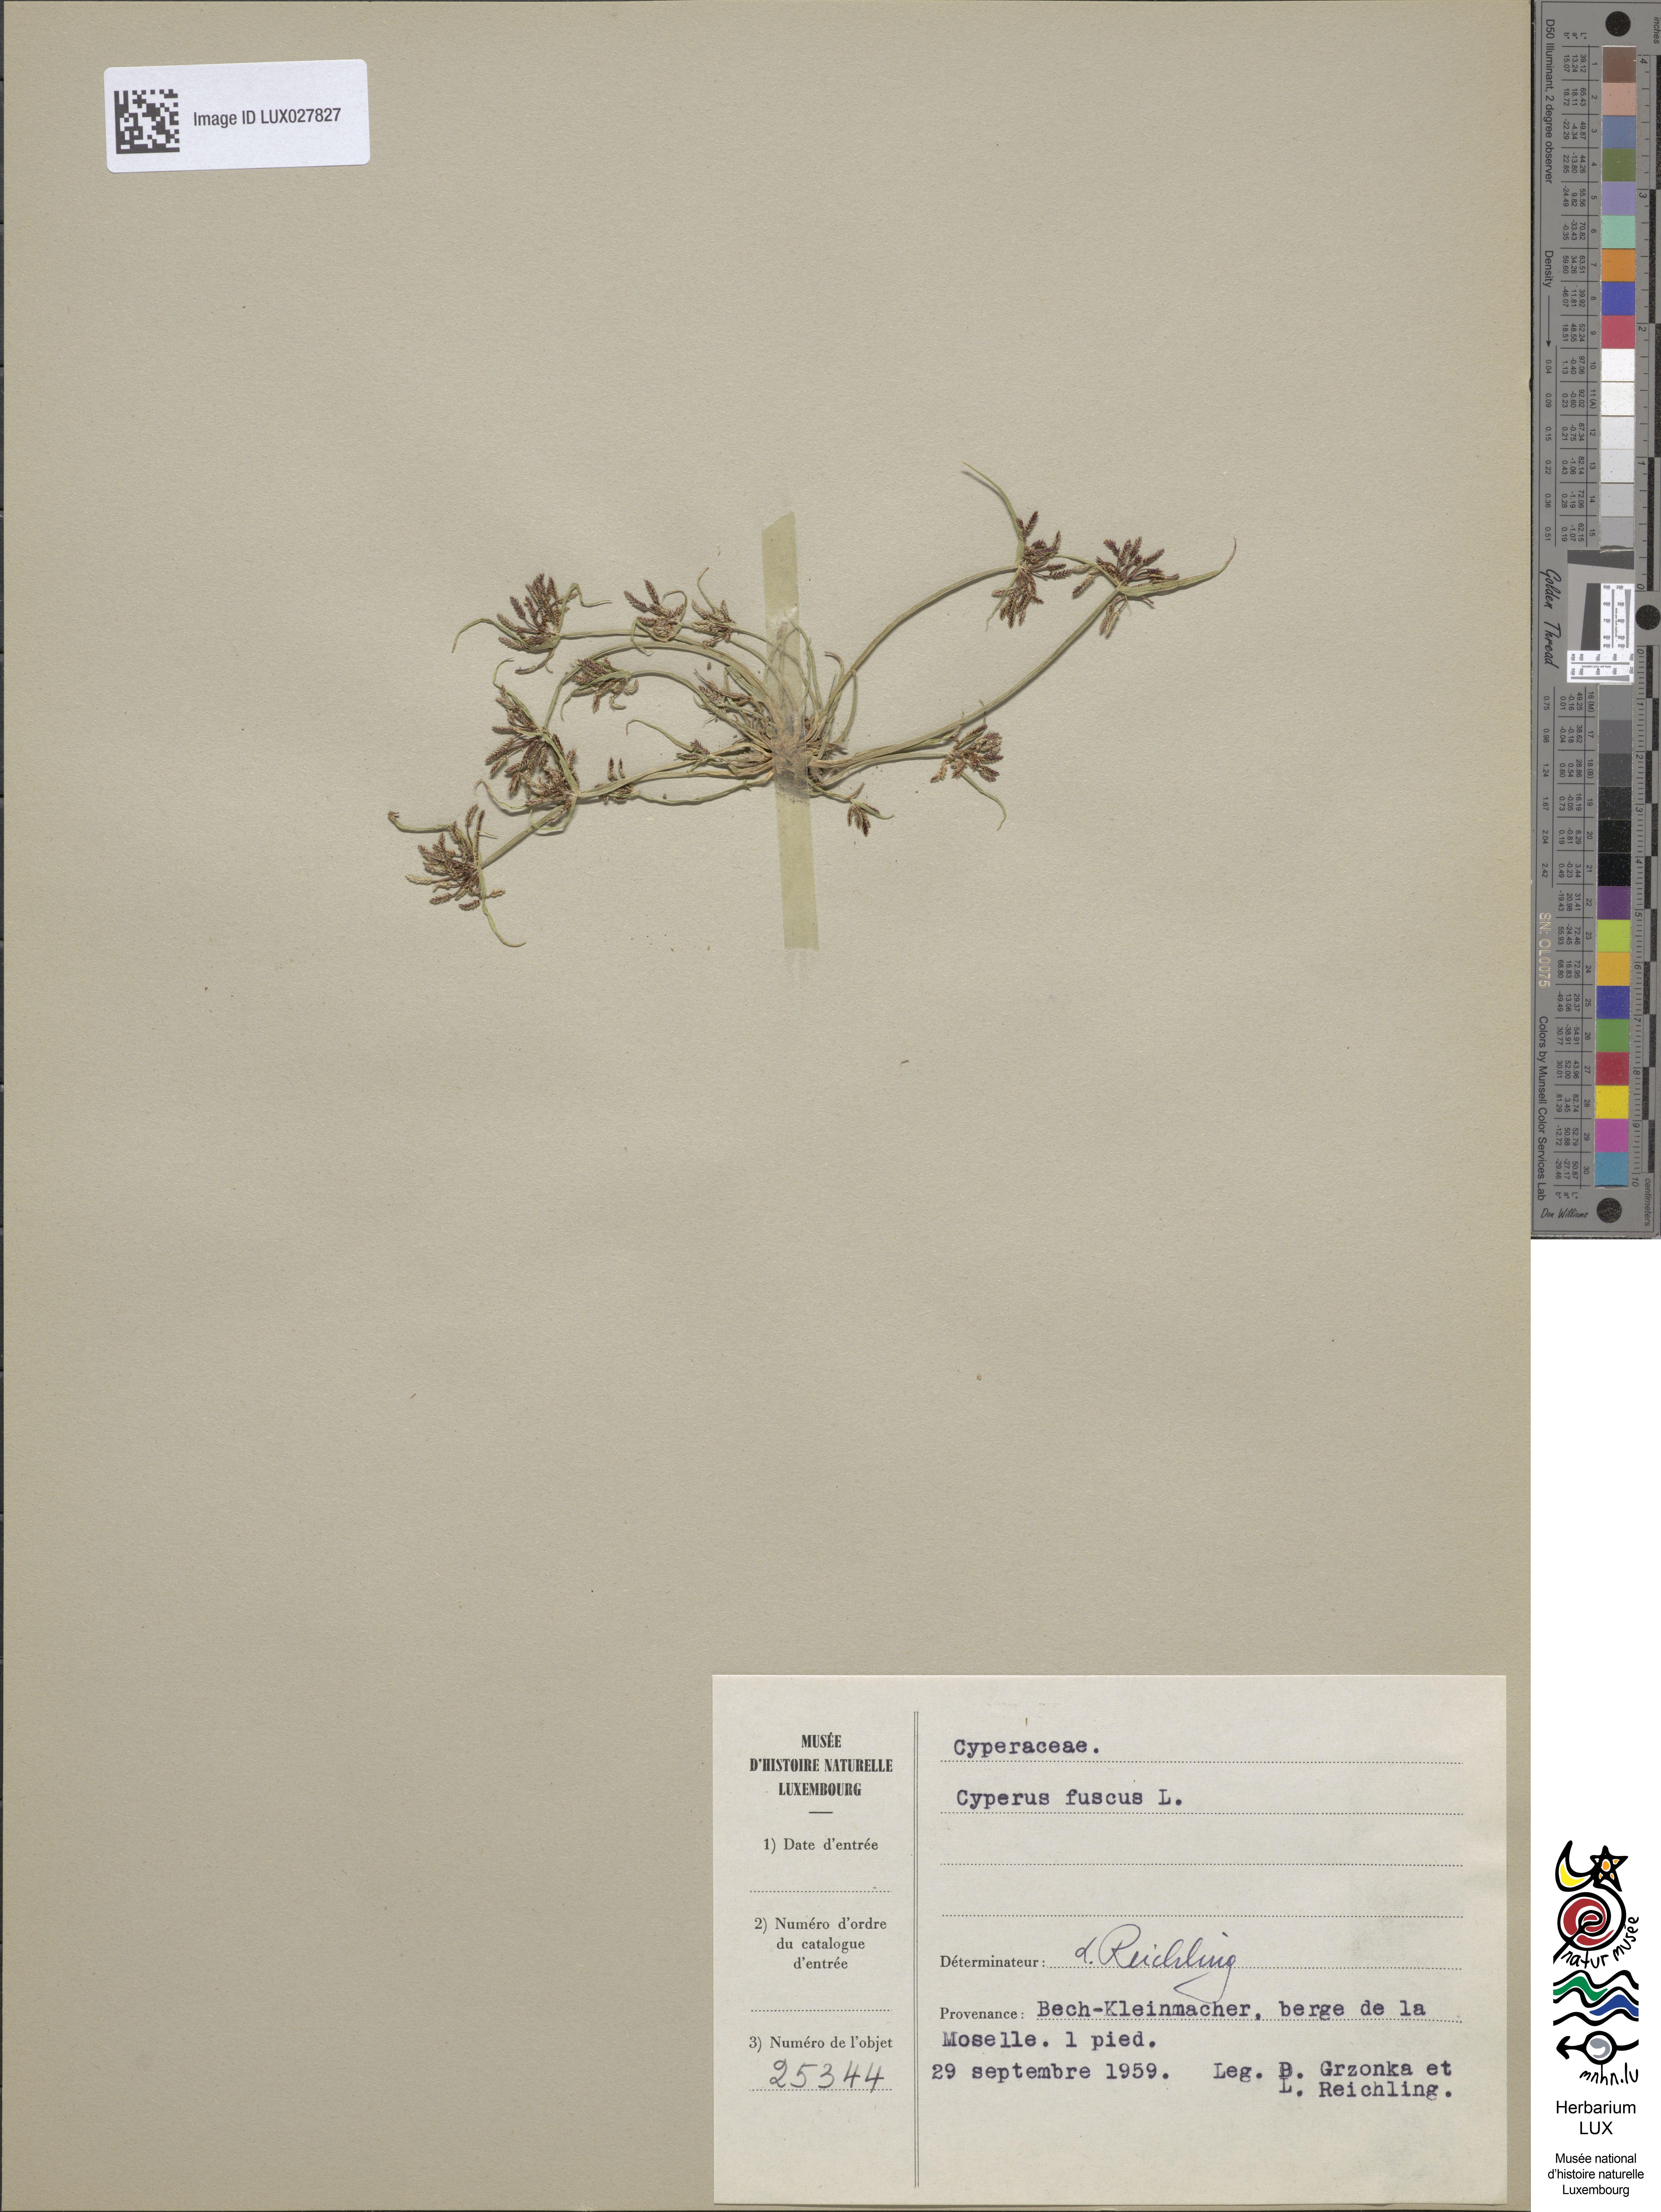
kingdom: Plantae
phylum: Tracheophyta
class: Liliopsida
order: Poales
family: Cyperaceae
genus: Cyperus
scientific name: Cyperus fuscus
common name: Brown galingale
